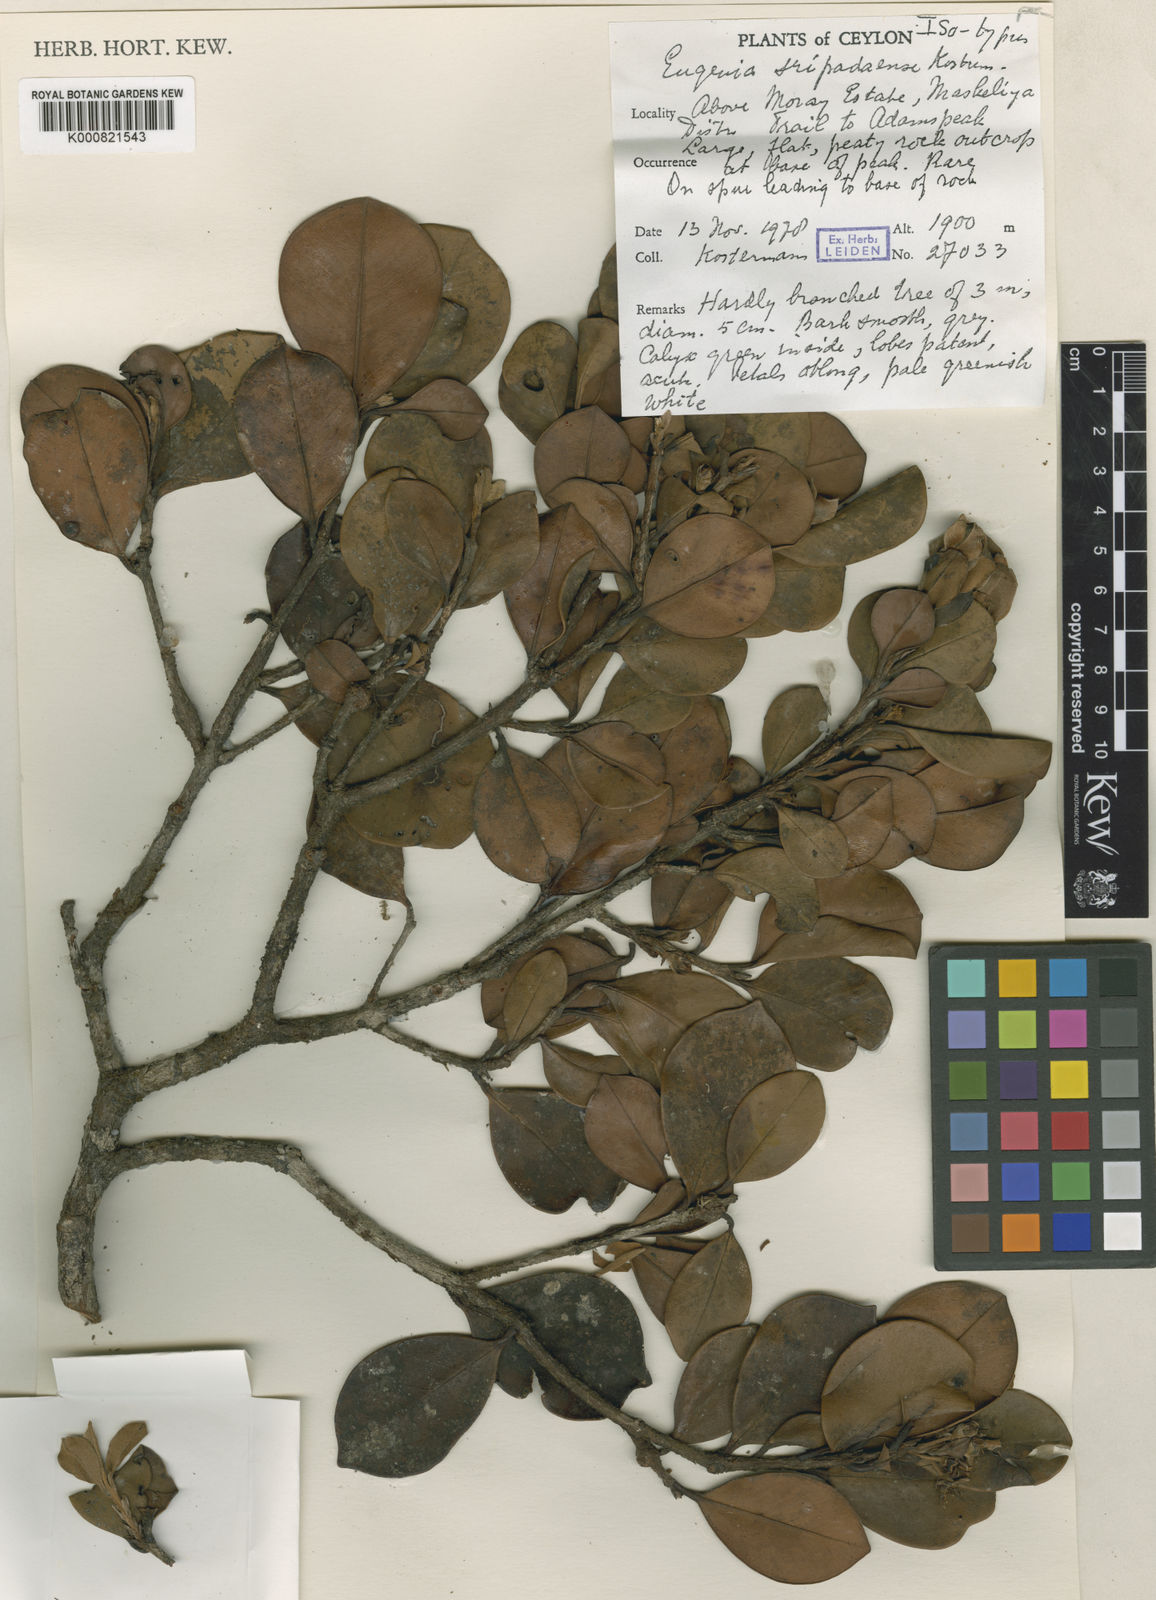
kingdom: Plantae
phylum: Tracheophyta
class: Magnoliopsida
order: Myrtales
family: Myrtaceae
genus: Eugenia
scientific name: Eugenia sripadaense
